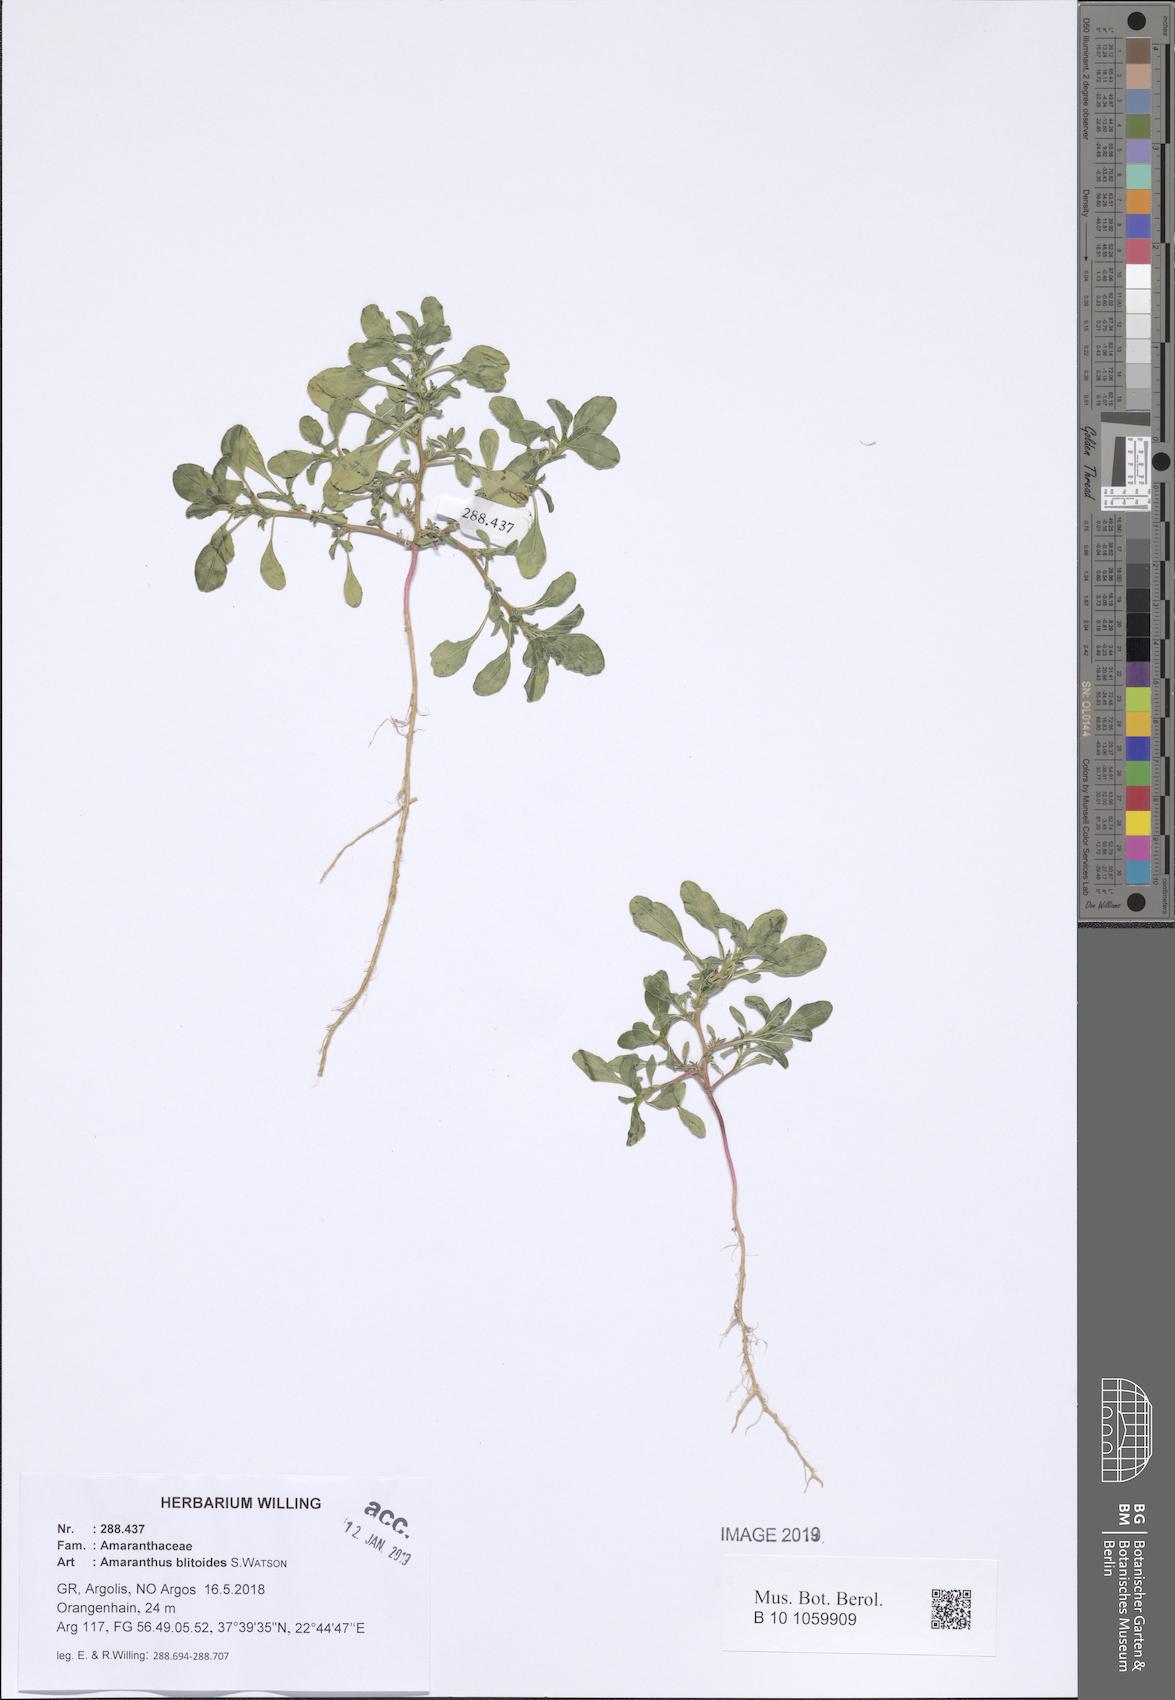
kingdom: Plantae
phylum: Tracheophyta
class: Magnoliopsida
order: Caryophyllales
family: Amaranthaceae
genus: Amaranthus
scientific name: Amaranthus blitoides
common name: Prostrate pigweed
